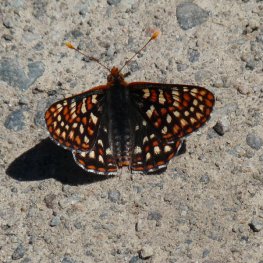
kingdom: Animalia
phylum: Arthropoda
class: Insecta
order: Lepidoptera
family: Nymphalidae
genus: Occidryas
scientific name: Occidryas chalcedona
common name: Chalcedon Checkerspot
